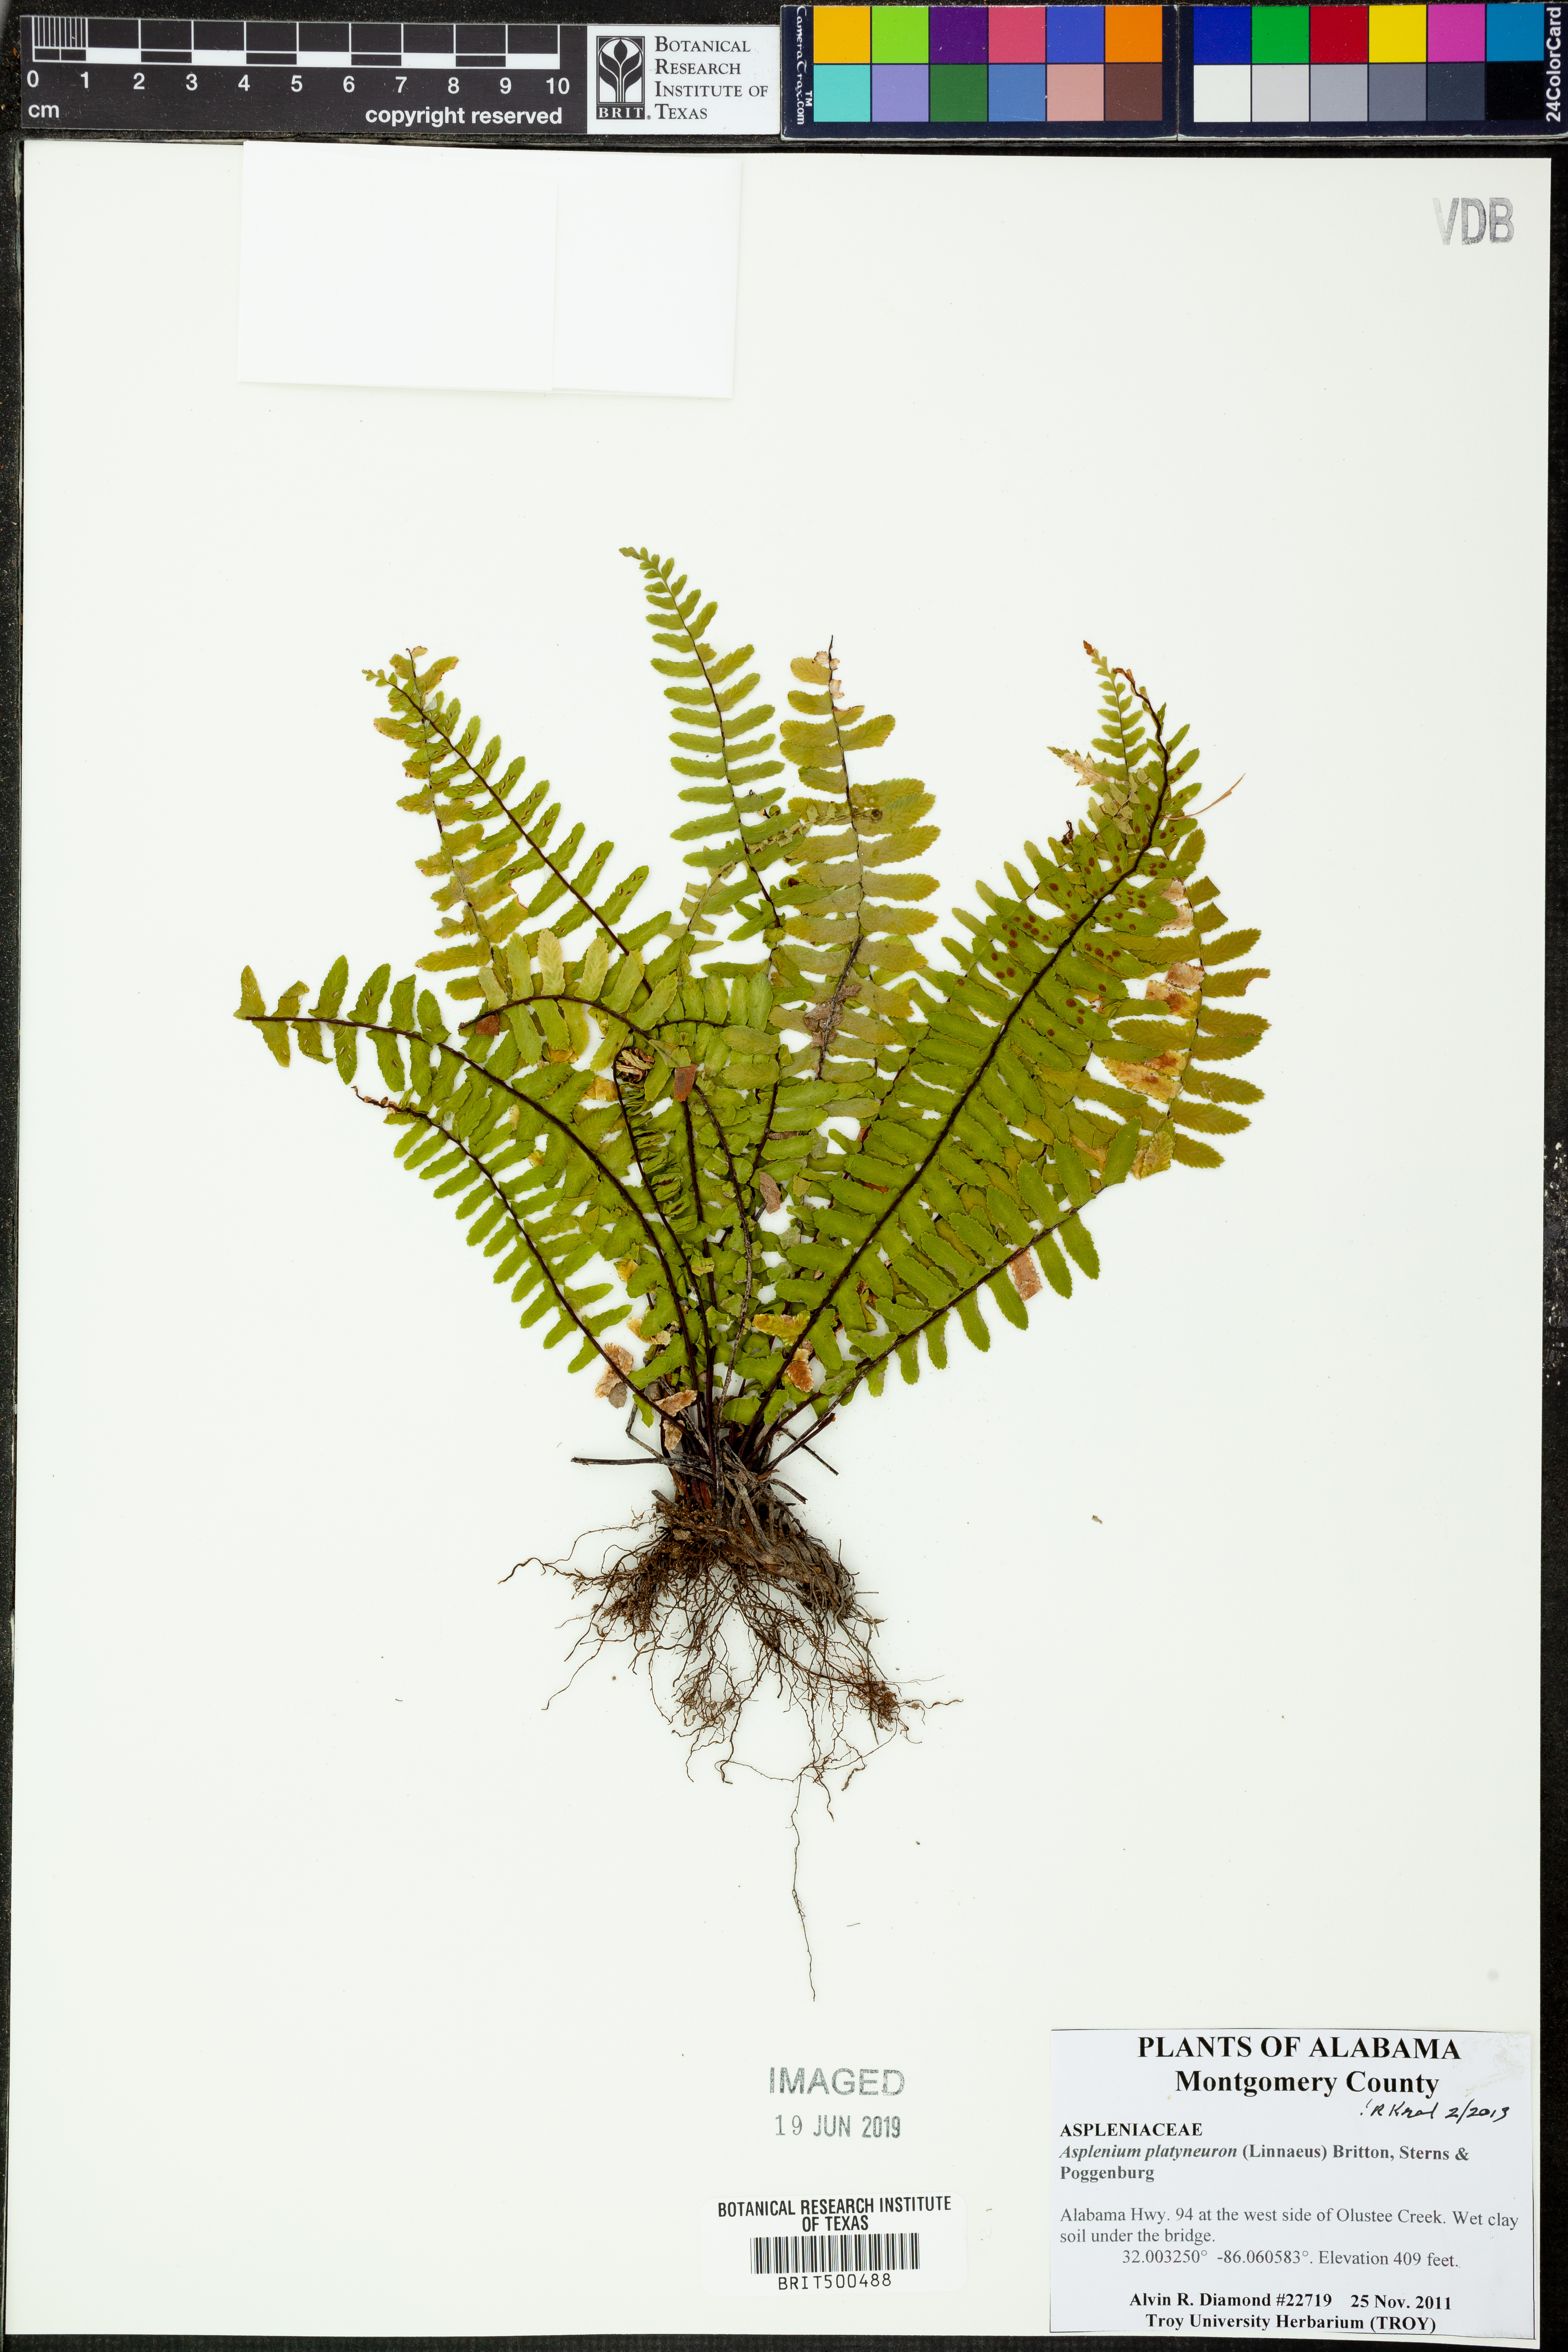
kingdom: Plantae
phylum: Tracheophyta
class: Polypodiopsida
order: Polypodiales
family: Aspleniaceae
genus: Asplenium
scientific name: Asplenium platyneuron
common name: Ebony spleenwort
